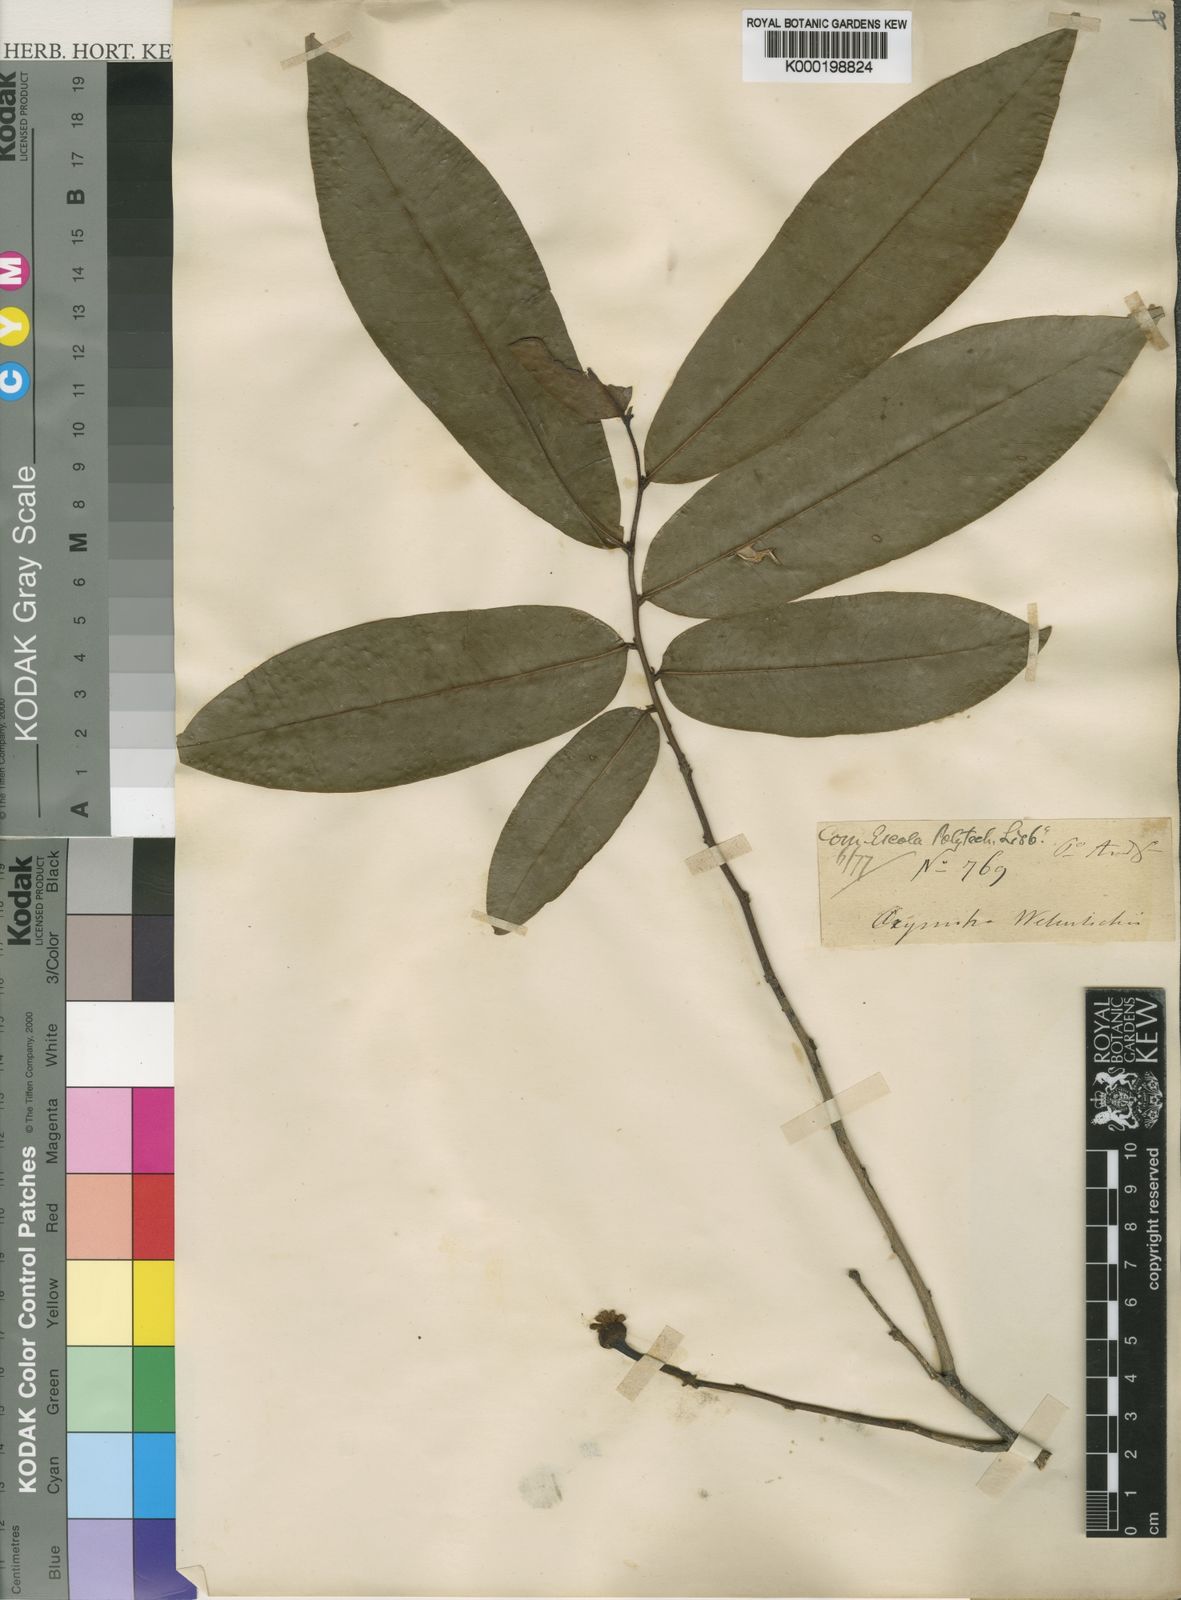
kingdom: Plantae
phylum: Tracheophyta
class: Magnoliopsida
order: Magnoliales
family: Annonaceae
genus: Uvaria
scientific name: Uvaria welwitschii
